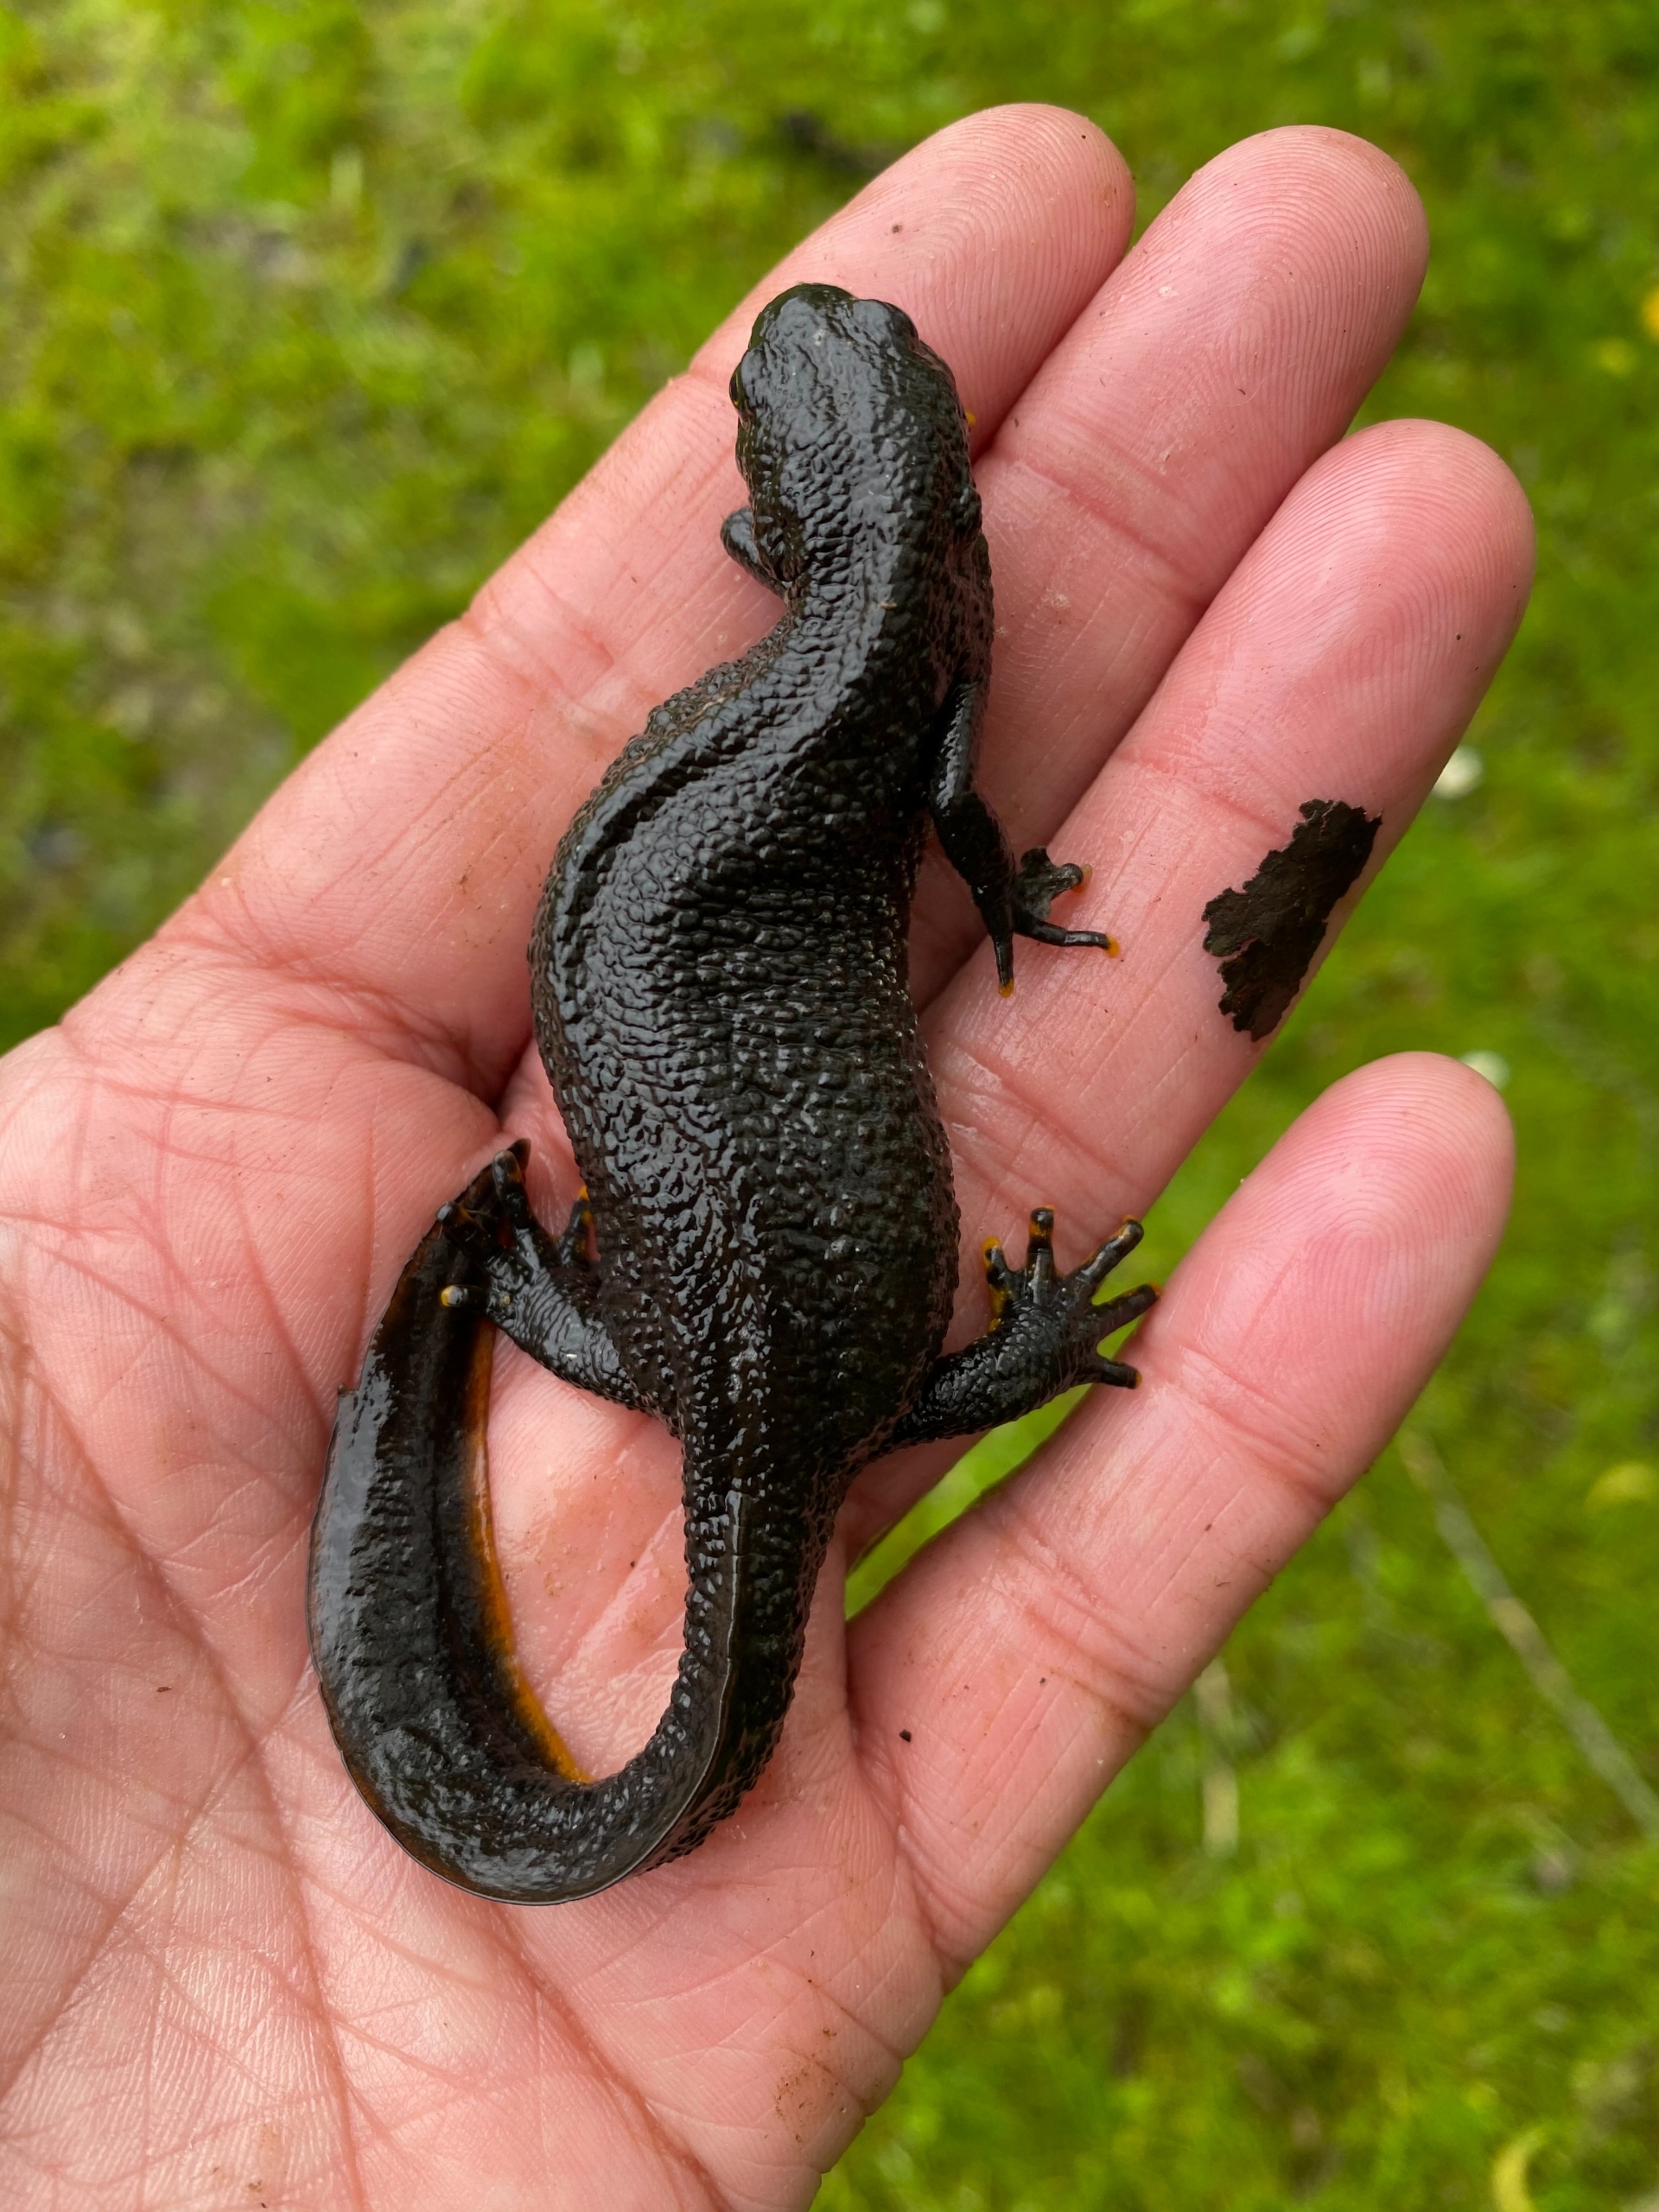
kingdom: Animalia
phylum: Chordata
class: Amphibia
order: Caudata
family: Salamandridae
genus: Triturus
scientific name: Triturus cristatus
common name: Stor vandsalamander
